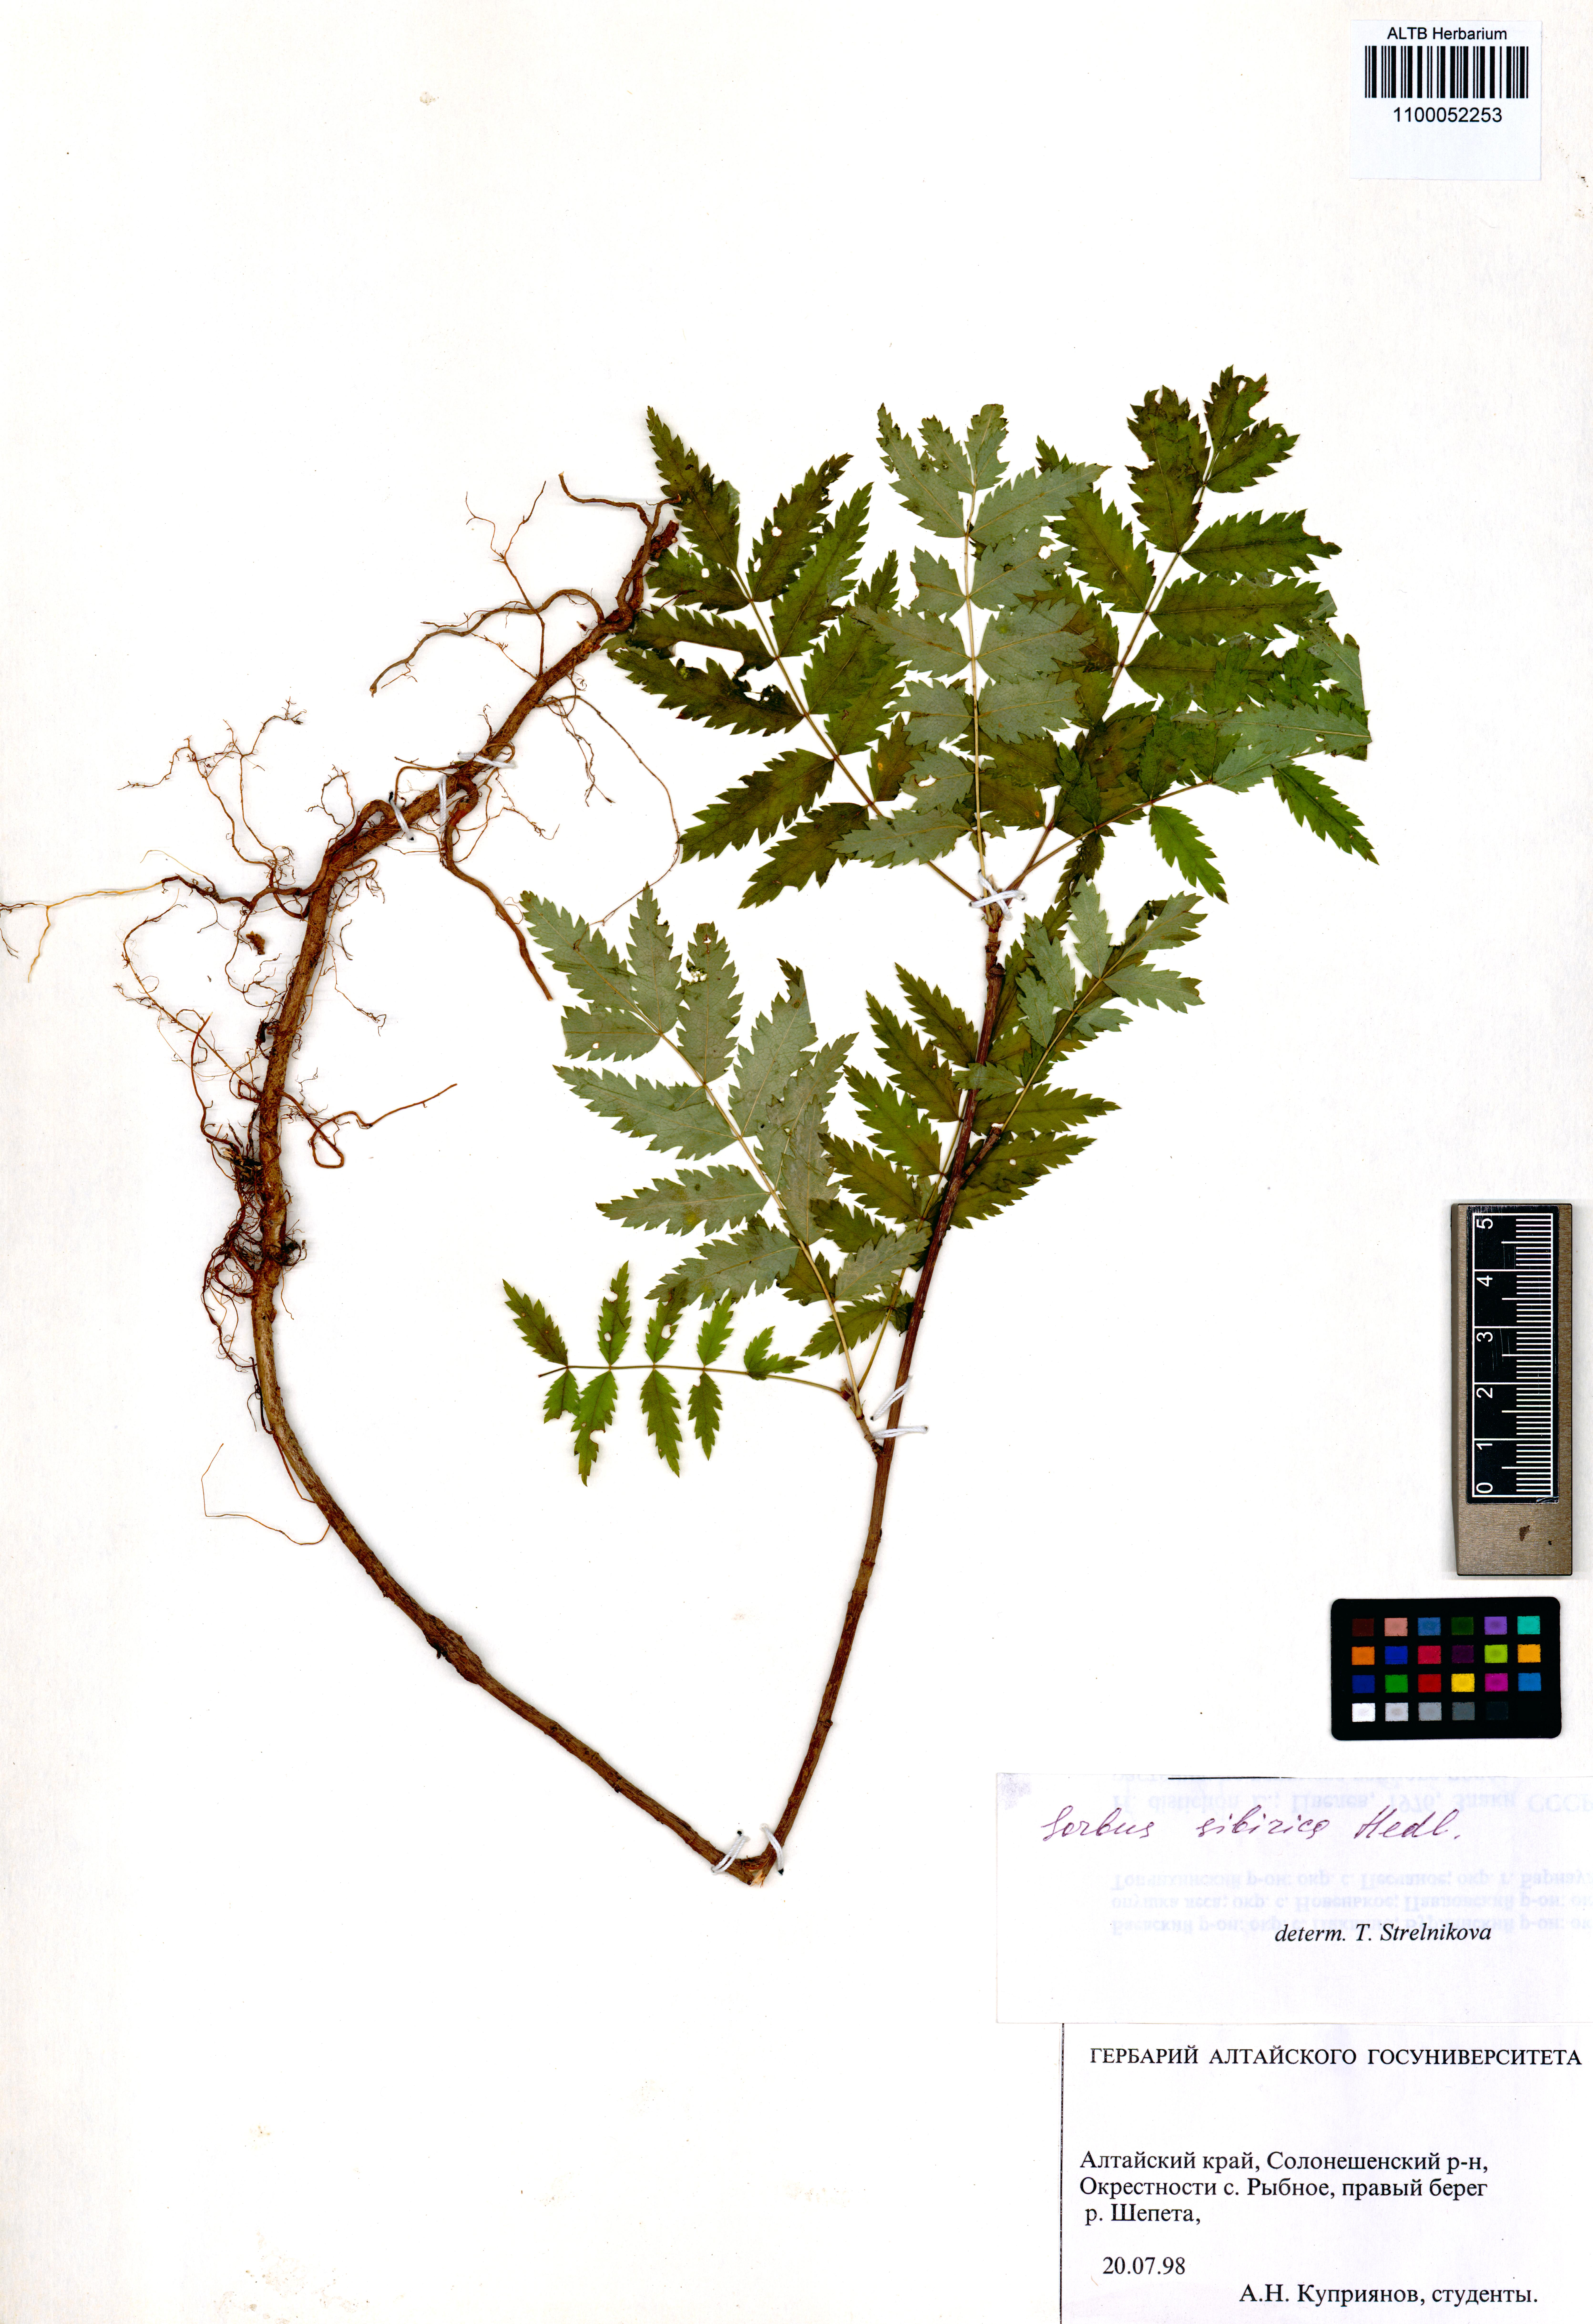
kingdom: Plantae
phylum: Tracheophyta
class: Magnoliopsida
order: Rosales
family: Rosaceae
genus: Sorbus
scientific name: Sorbus aucuparia
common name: Rowan
